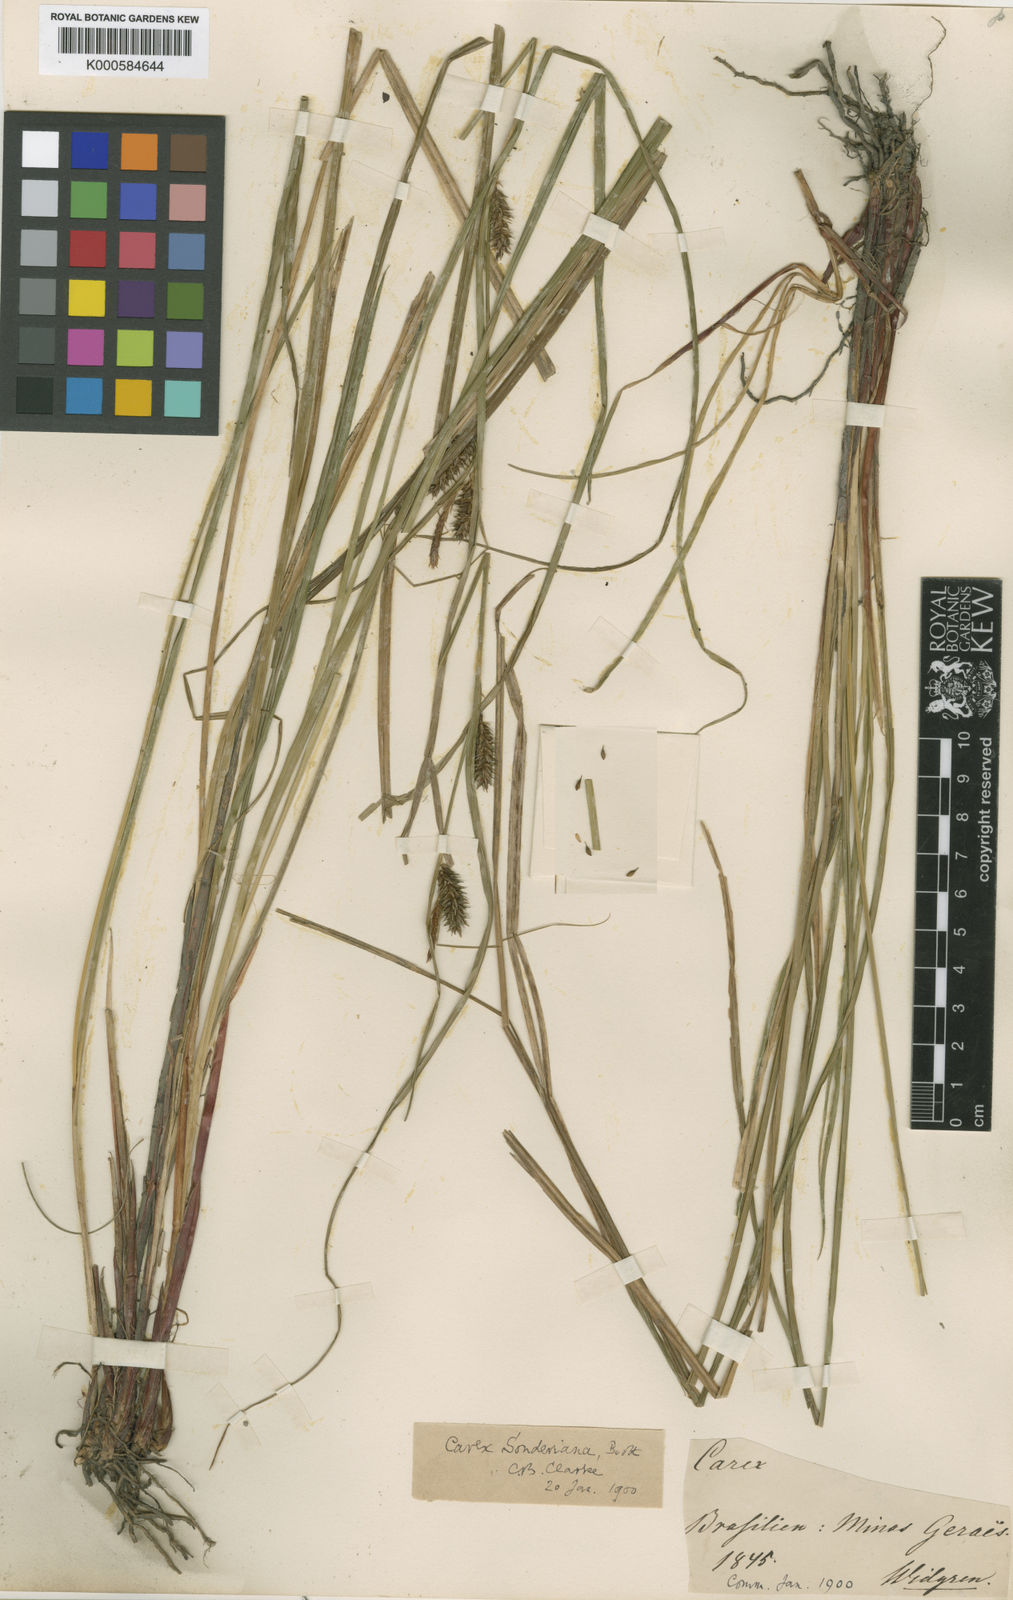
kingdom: Plantae
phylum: Tracheophyta
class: Liliopsida
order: Poales
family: Cyperaceae
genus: Carex
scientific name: Carex purpureovaginata
